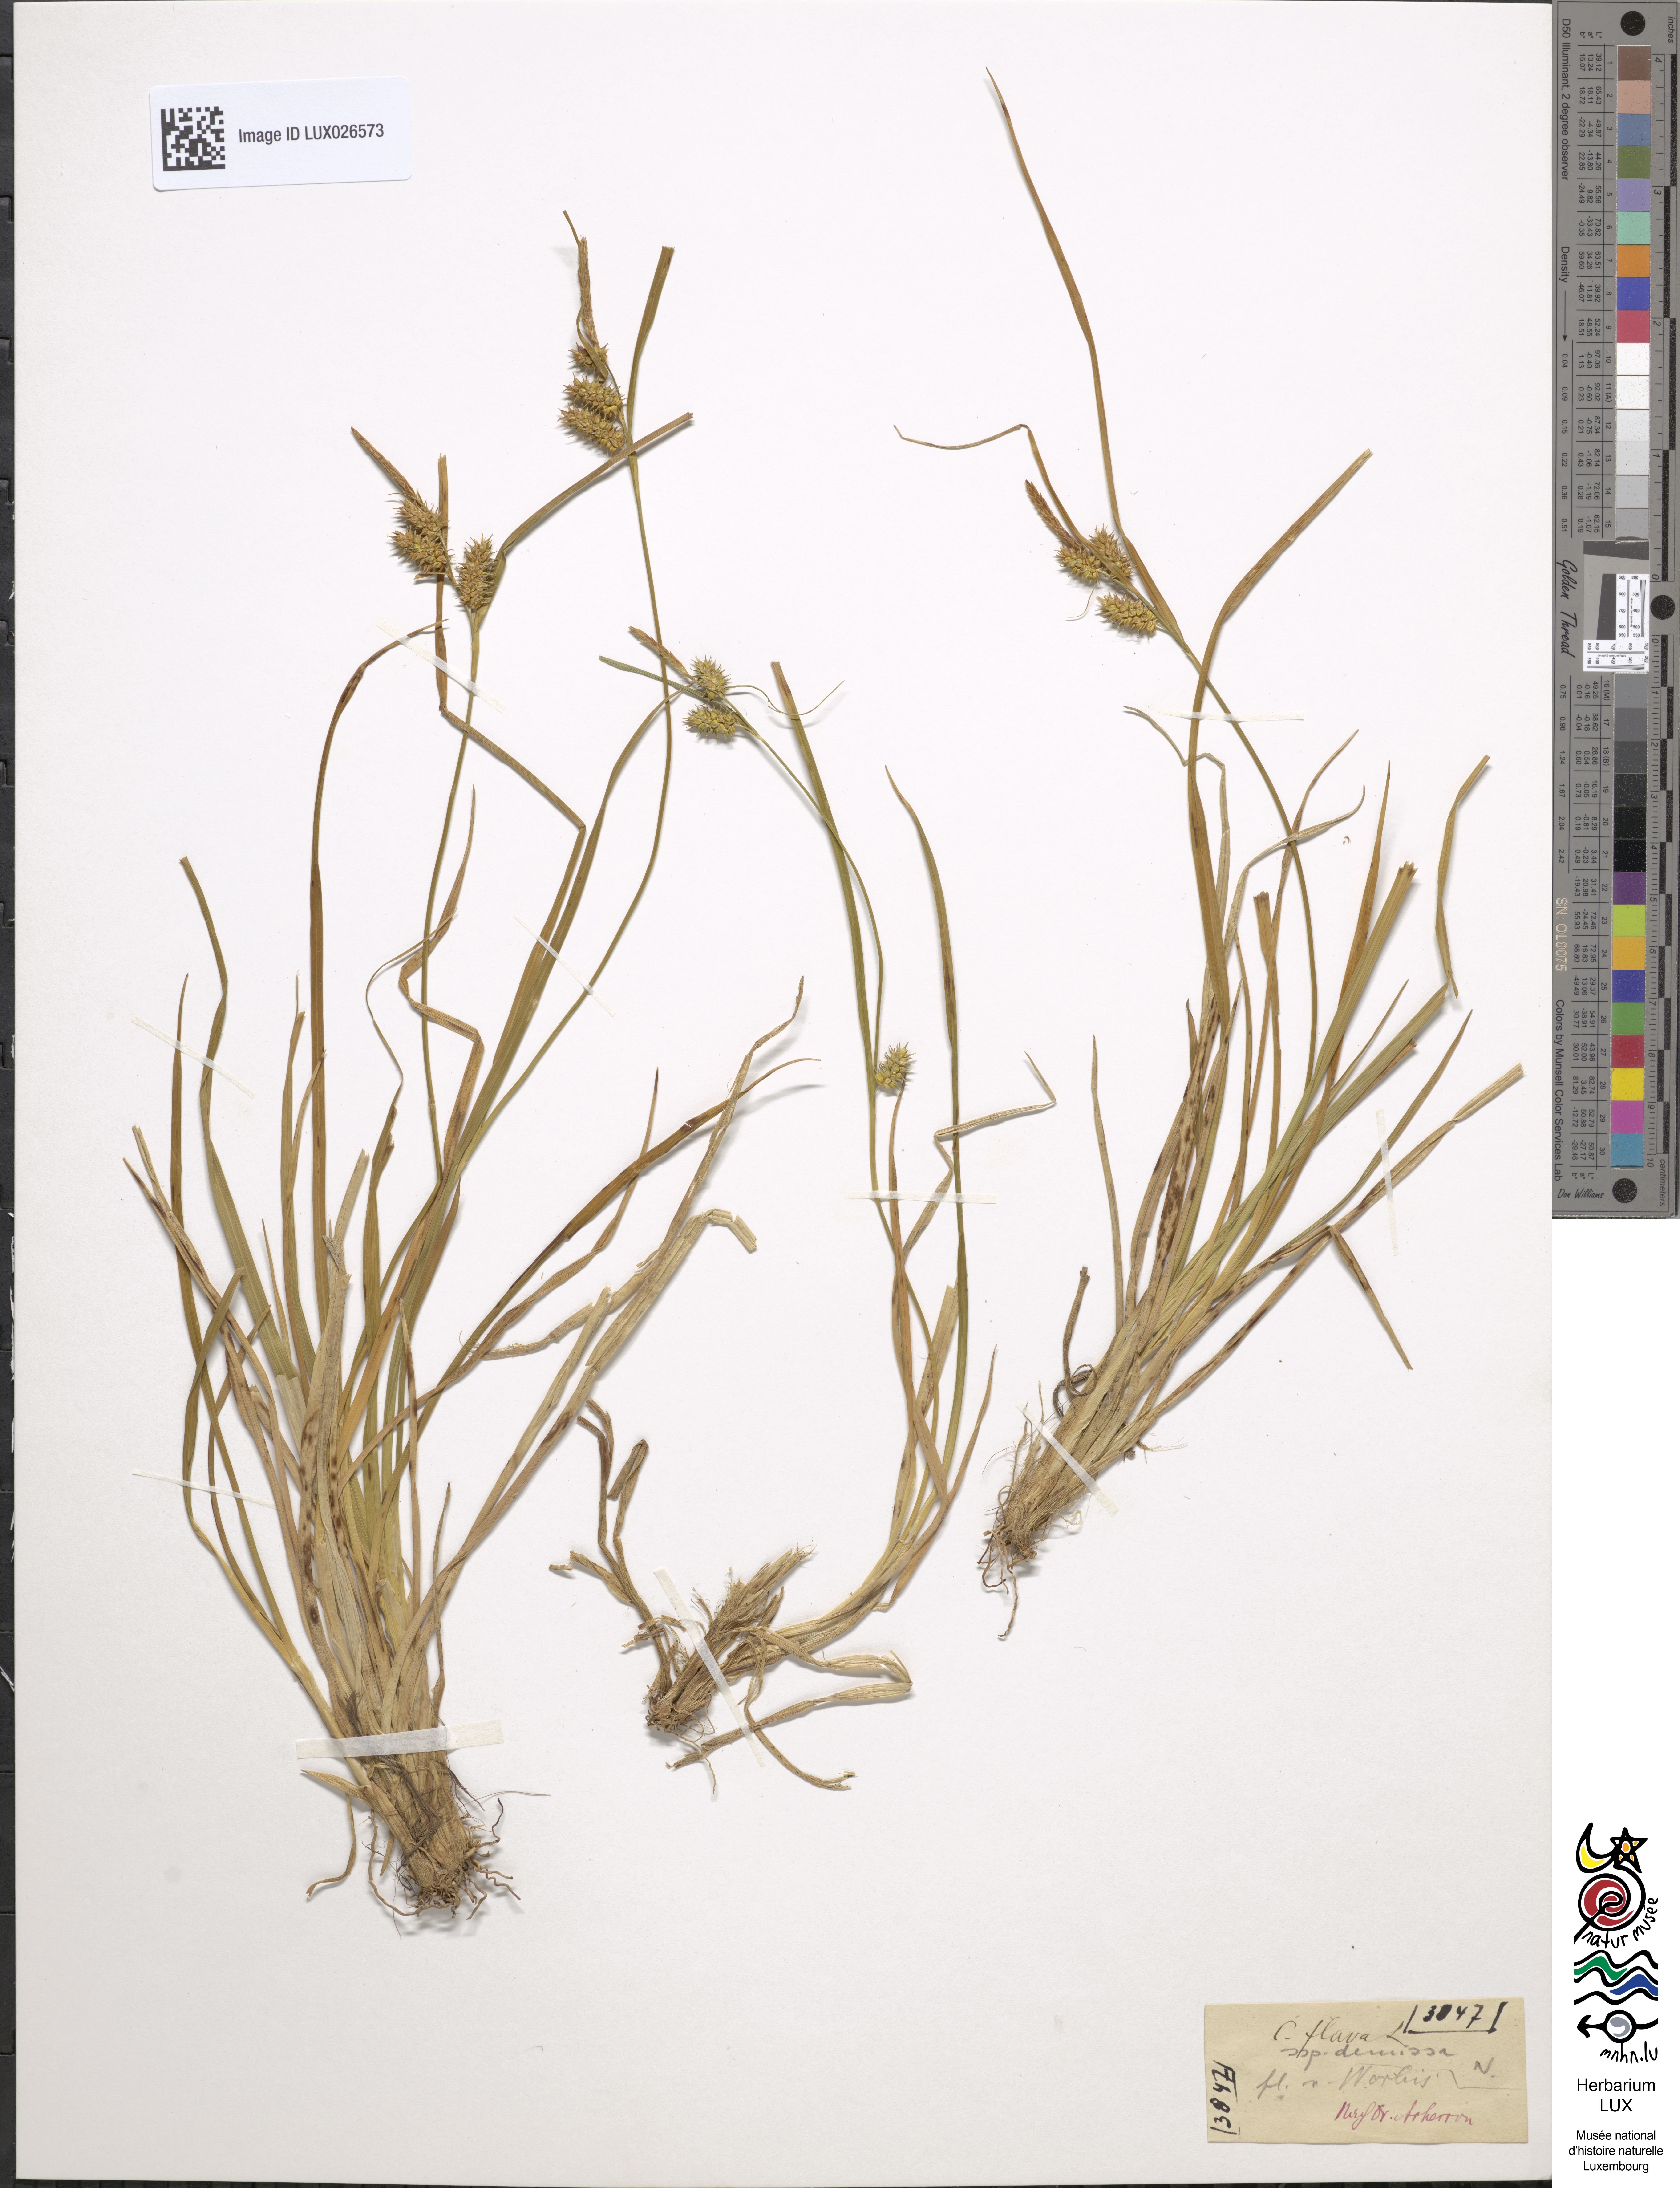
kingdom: Plantae
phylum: Tracheophyta
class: Liliopsida
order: Poales
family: Cyperaceae
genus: Carex
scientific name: Carex demissa
